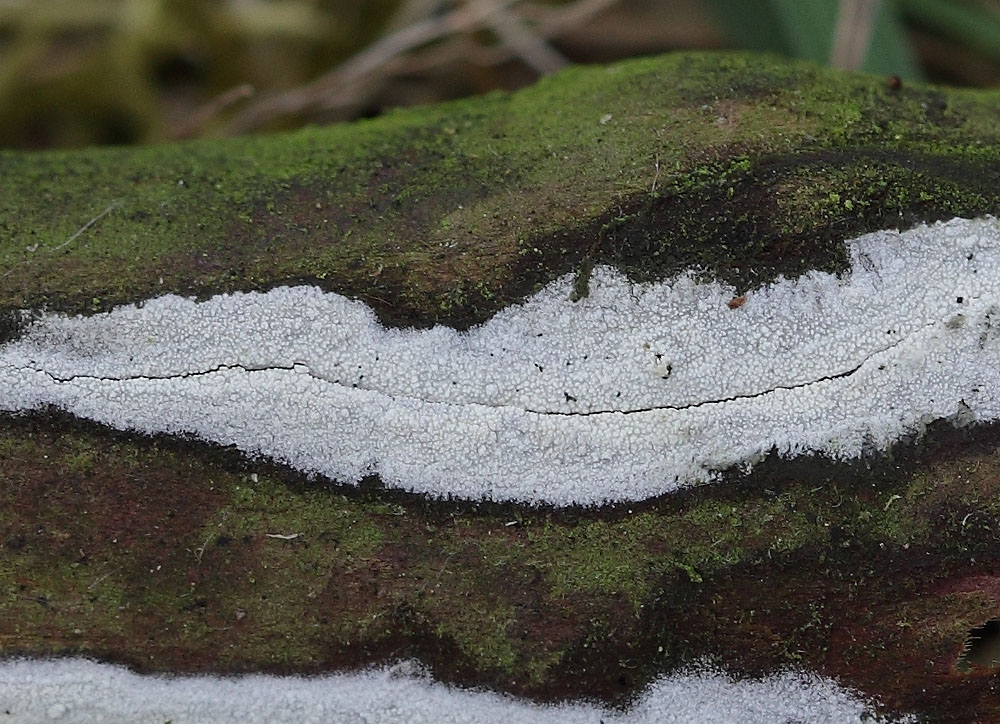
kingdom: Fungi
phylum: Basidiomycota
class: Agaricomycetes
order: Hymenochaetales
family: Schizoporaceae
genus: Xylodon
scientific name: Xylodon nesporii
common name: fintandet tandsvamp
